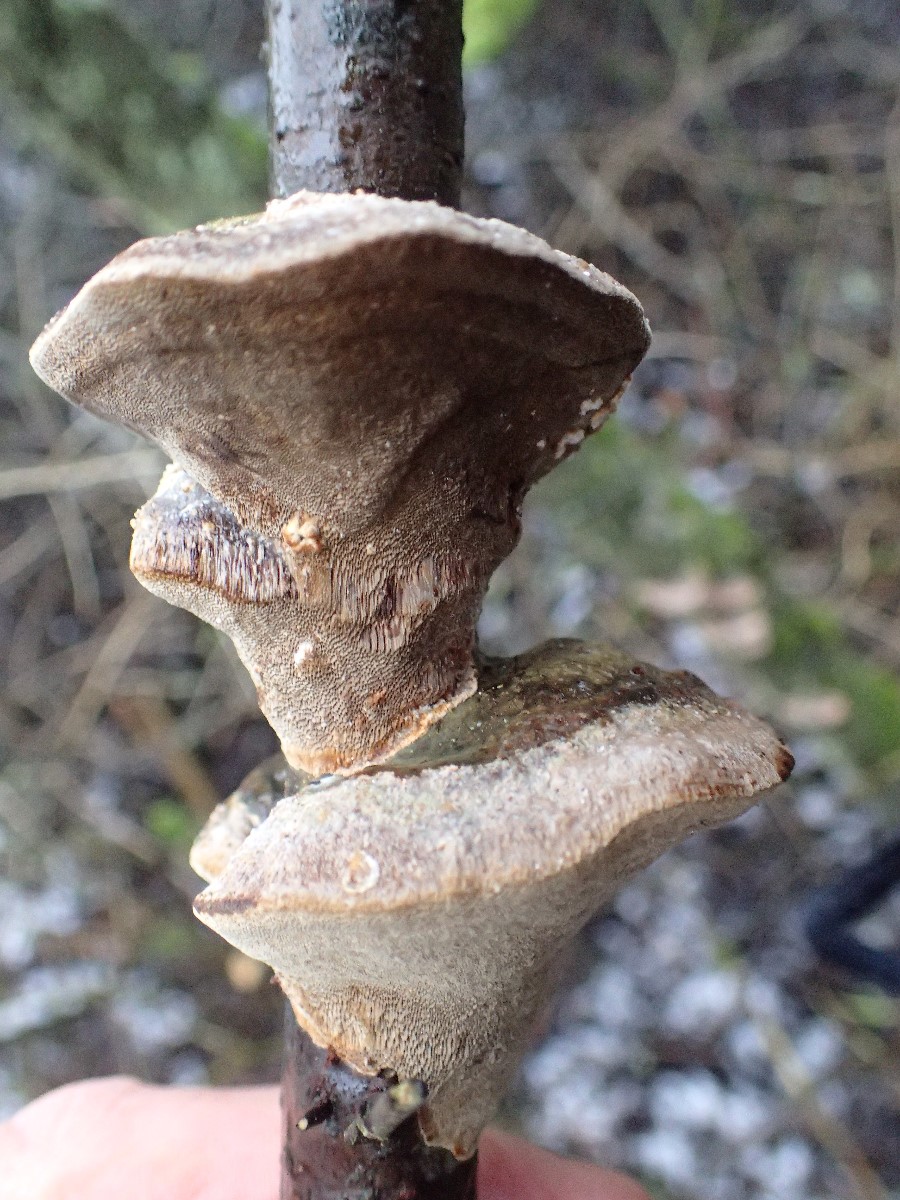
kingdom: Fungi
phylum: Basidiomycota
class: Agaricomycetes
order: Hymenochaetales
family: Hymenochaetaceae
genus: Phellinus
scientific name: Phellinus pomaceus
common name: blomme-ildporesvamp
